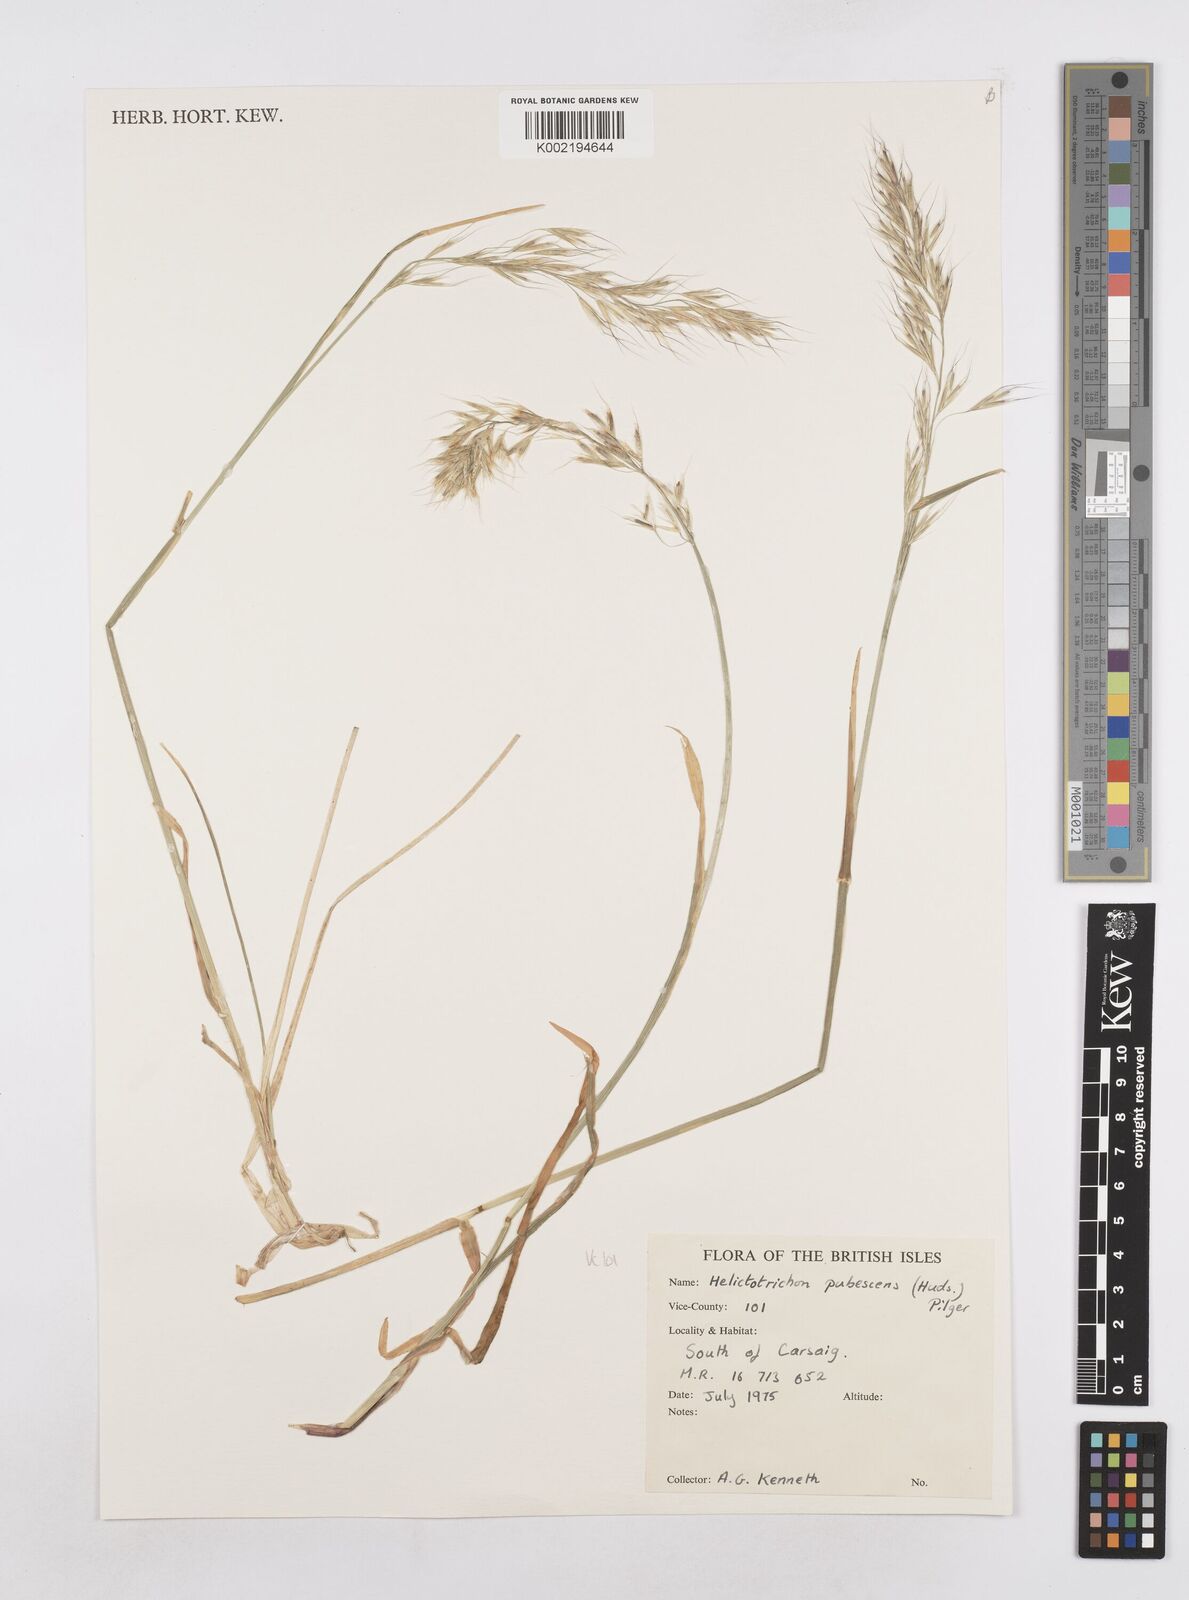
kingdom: Plantae
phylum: Tracheophyta
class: Liliopsida
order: Poales
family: Poaceae
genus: Avenula
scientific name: Avenula pubescens
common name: Downy alpine oatgrass
